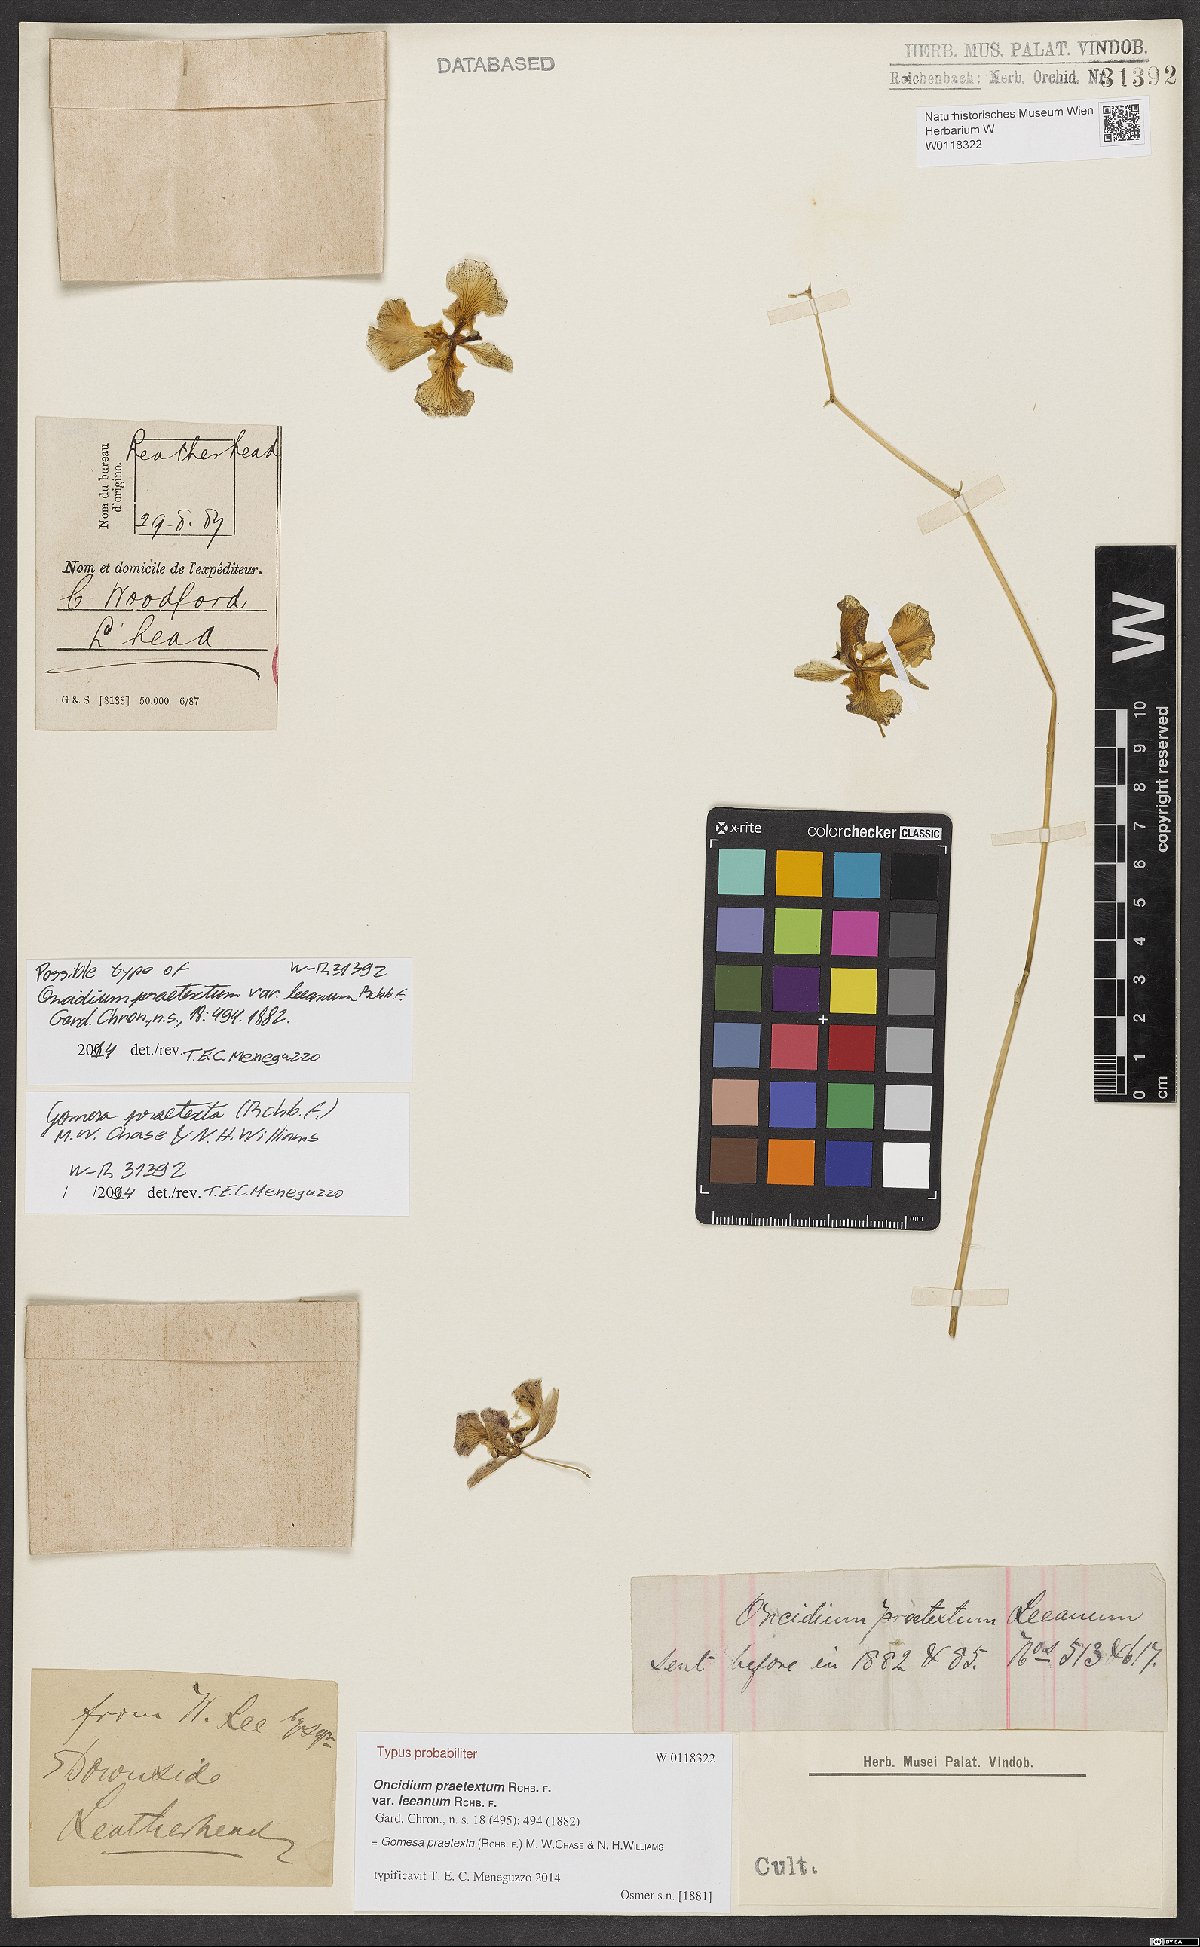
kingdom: Plantae
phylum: Tracheophyta
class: Liliopsida
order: Asparagales
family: Orchidaceae
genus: Gomesa
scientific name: Gomesa praetexta
